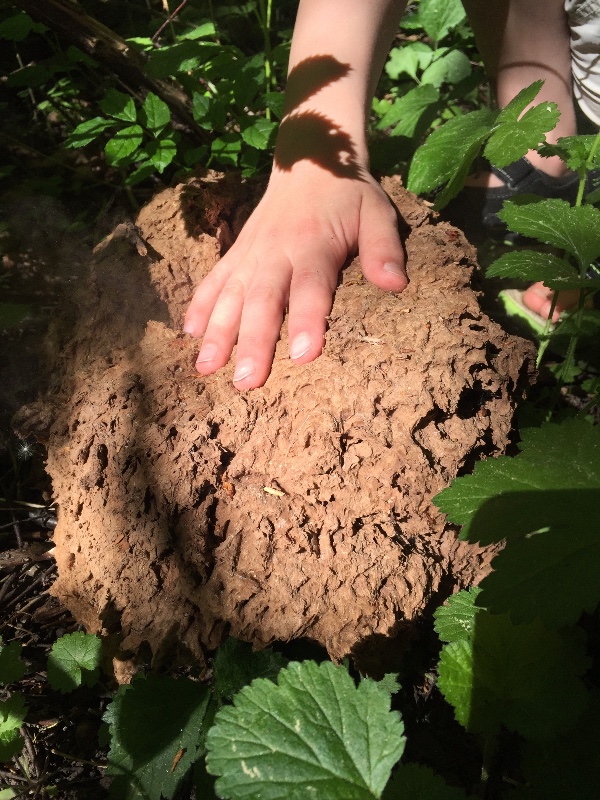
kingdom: Fungi
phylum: Basidiomycota
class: Agaricomycetes
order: Agaricales
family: Lycoperdaceae
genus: Calvatia
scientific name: Calvatia gigantea
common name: kæmpestøvbold
